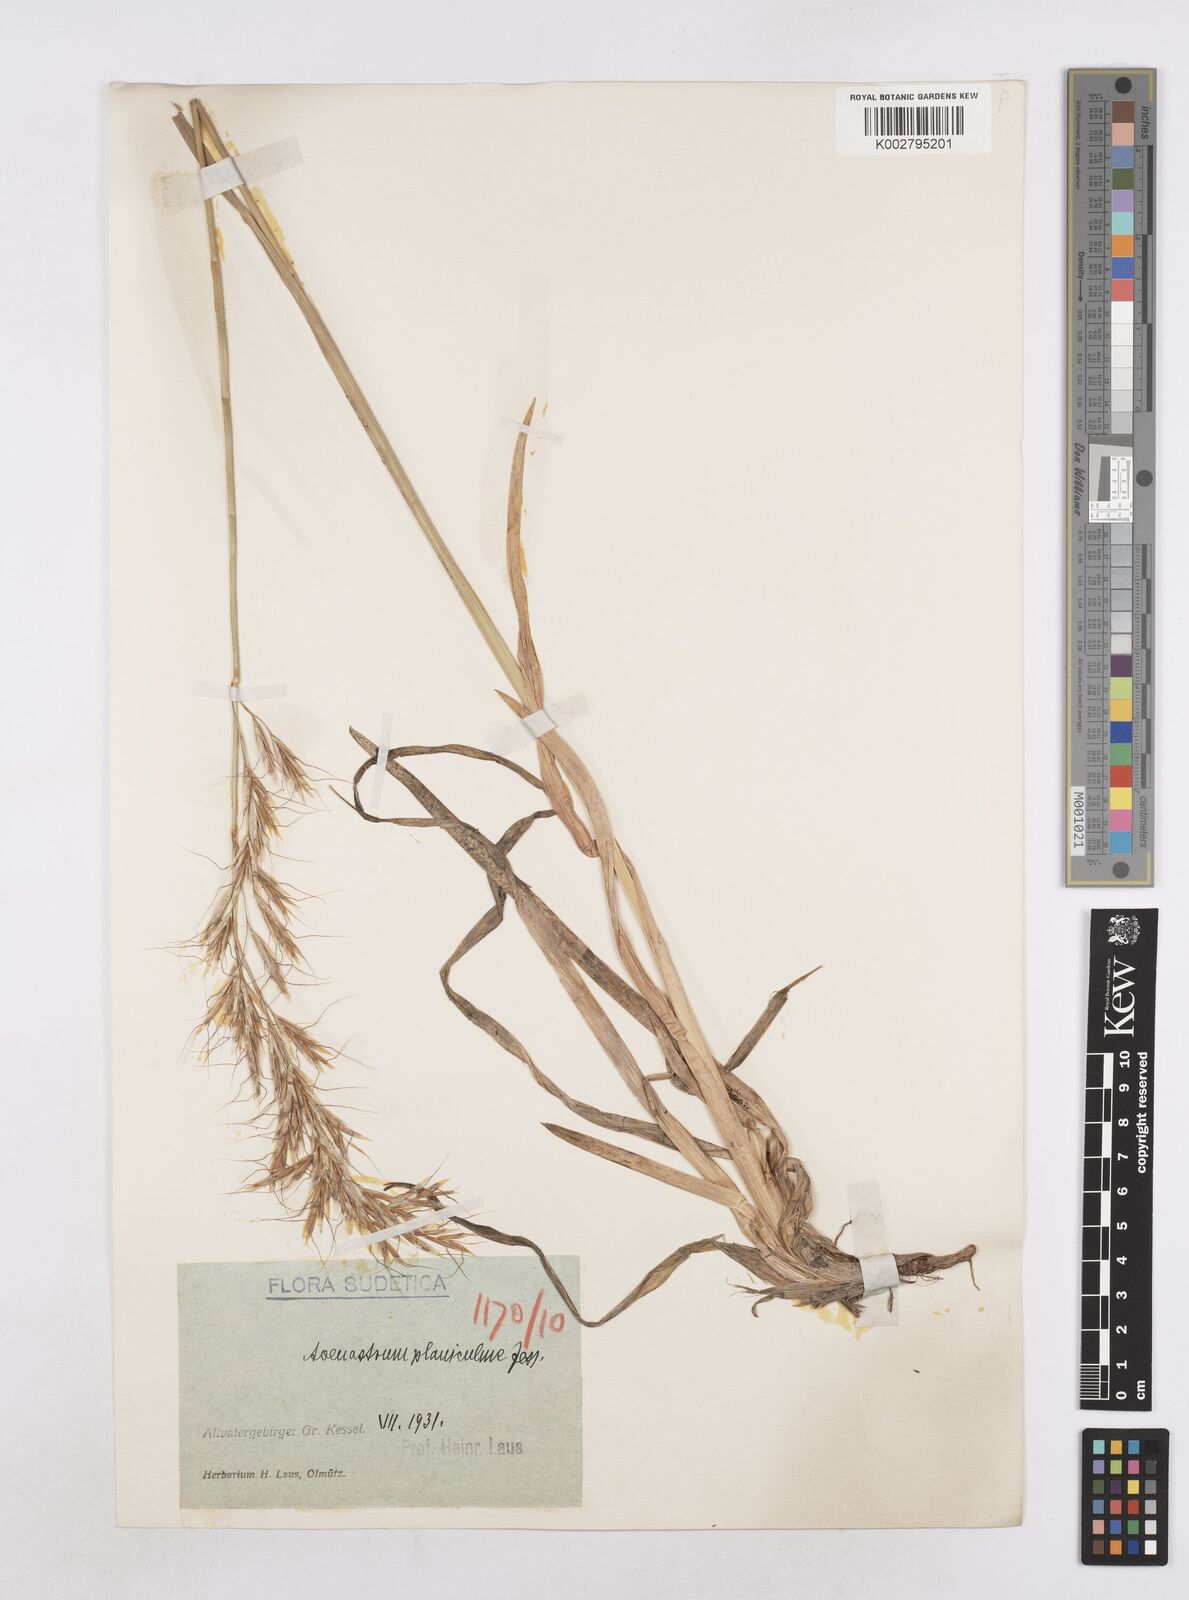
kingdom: Plantae
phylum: Tracheophyta
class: Liliopsida
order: Poales
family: Poaceae
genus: Helictochloa
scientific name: Helictochloa planiculmis
